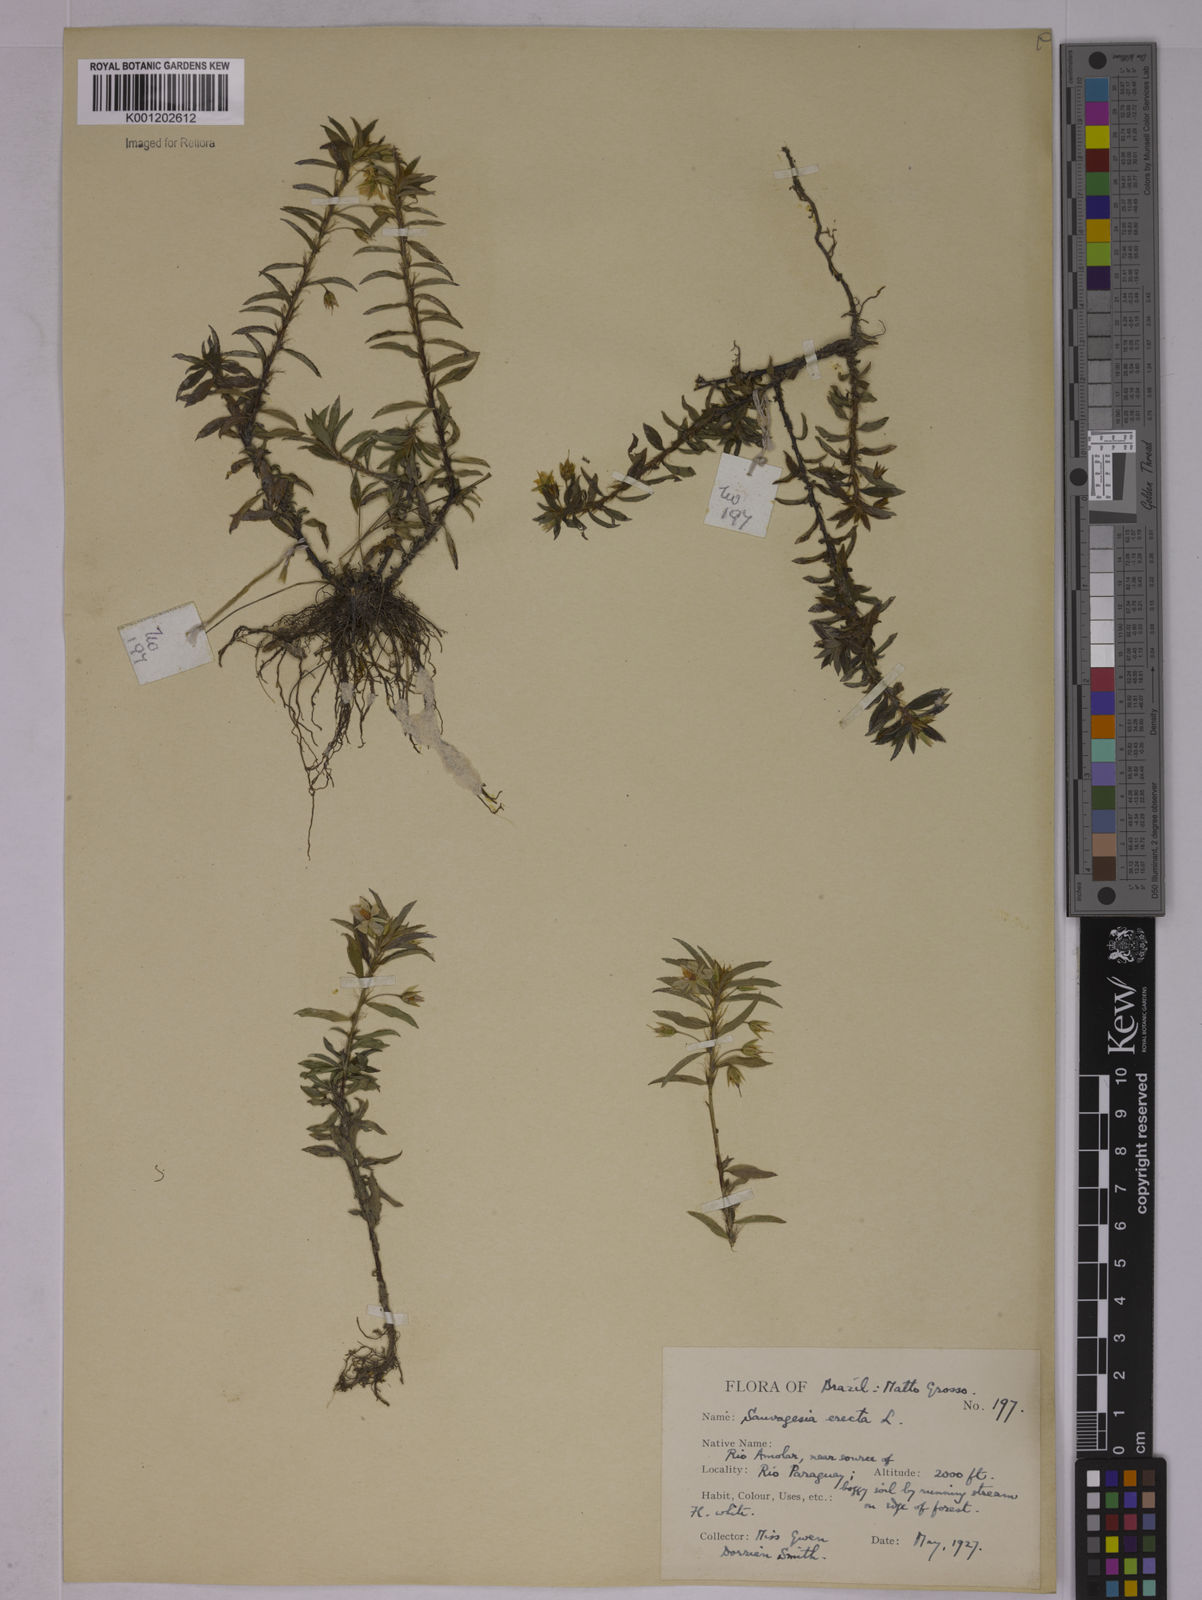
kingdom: Plantae
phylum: Tracheophyta
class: Magnoliopsida
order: Malpighiales
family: Ochnaceae
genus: Sauvagesia
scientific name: Sauvagesia erecta
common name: Creole tea
